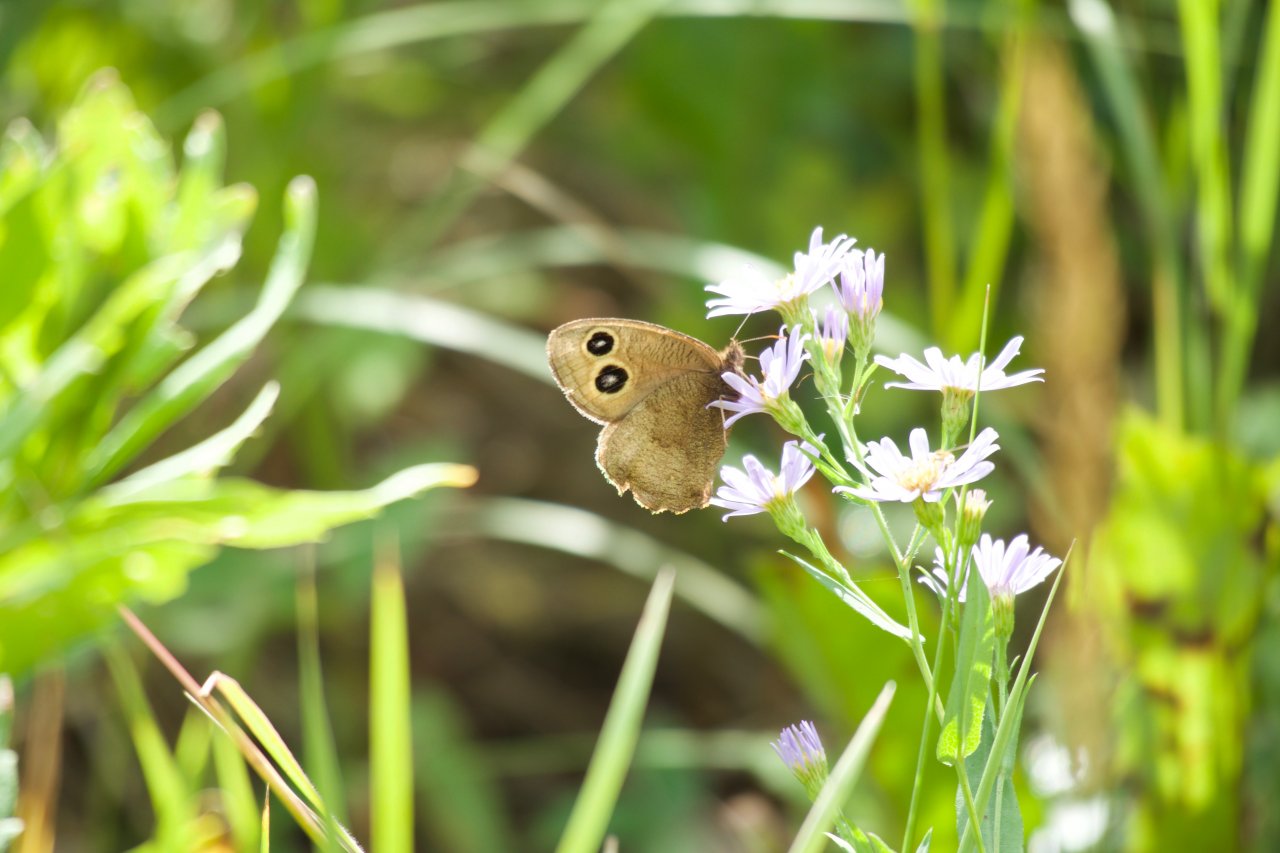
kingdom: Animalia
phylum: Arthropoda
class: Insecta
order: Lepidoptera
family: Nymphalidae
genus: Cercyonis
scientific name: Cercyonis pegala
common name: Common Wood-Nymph
